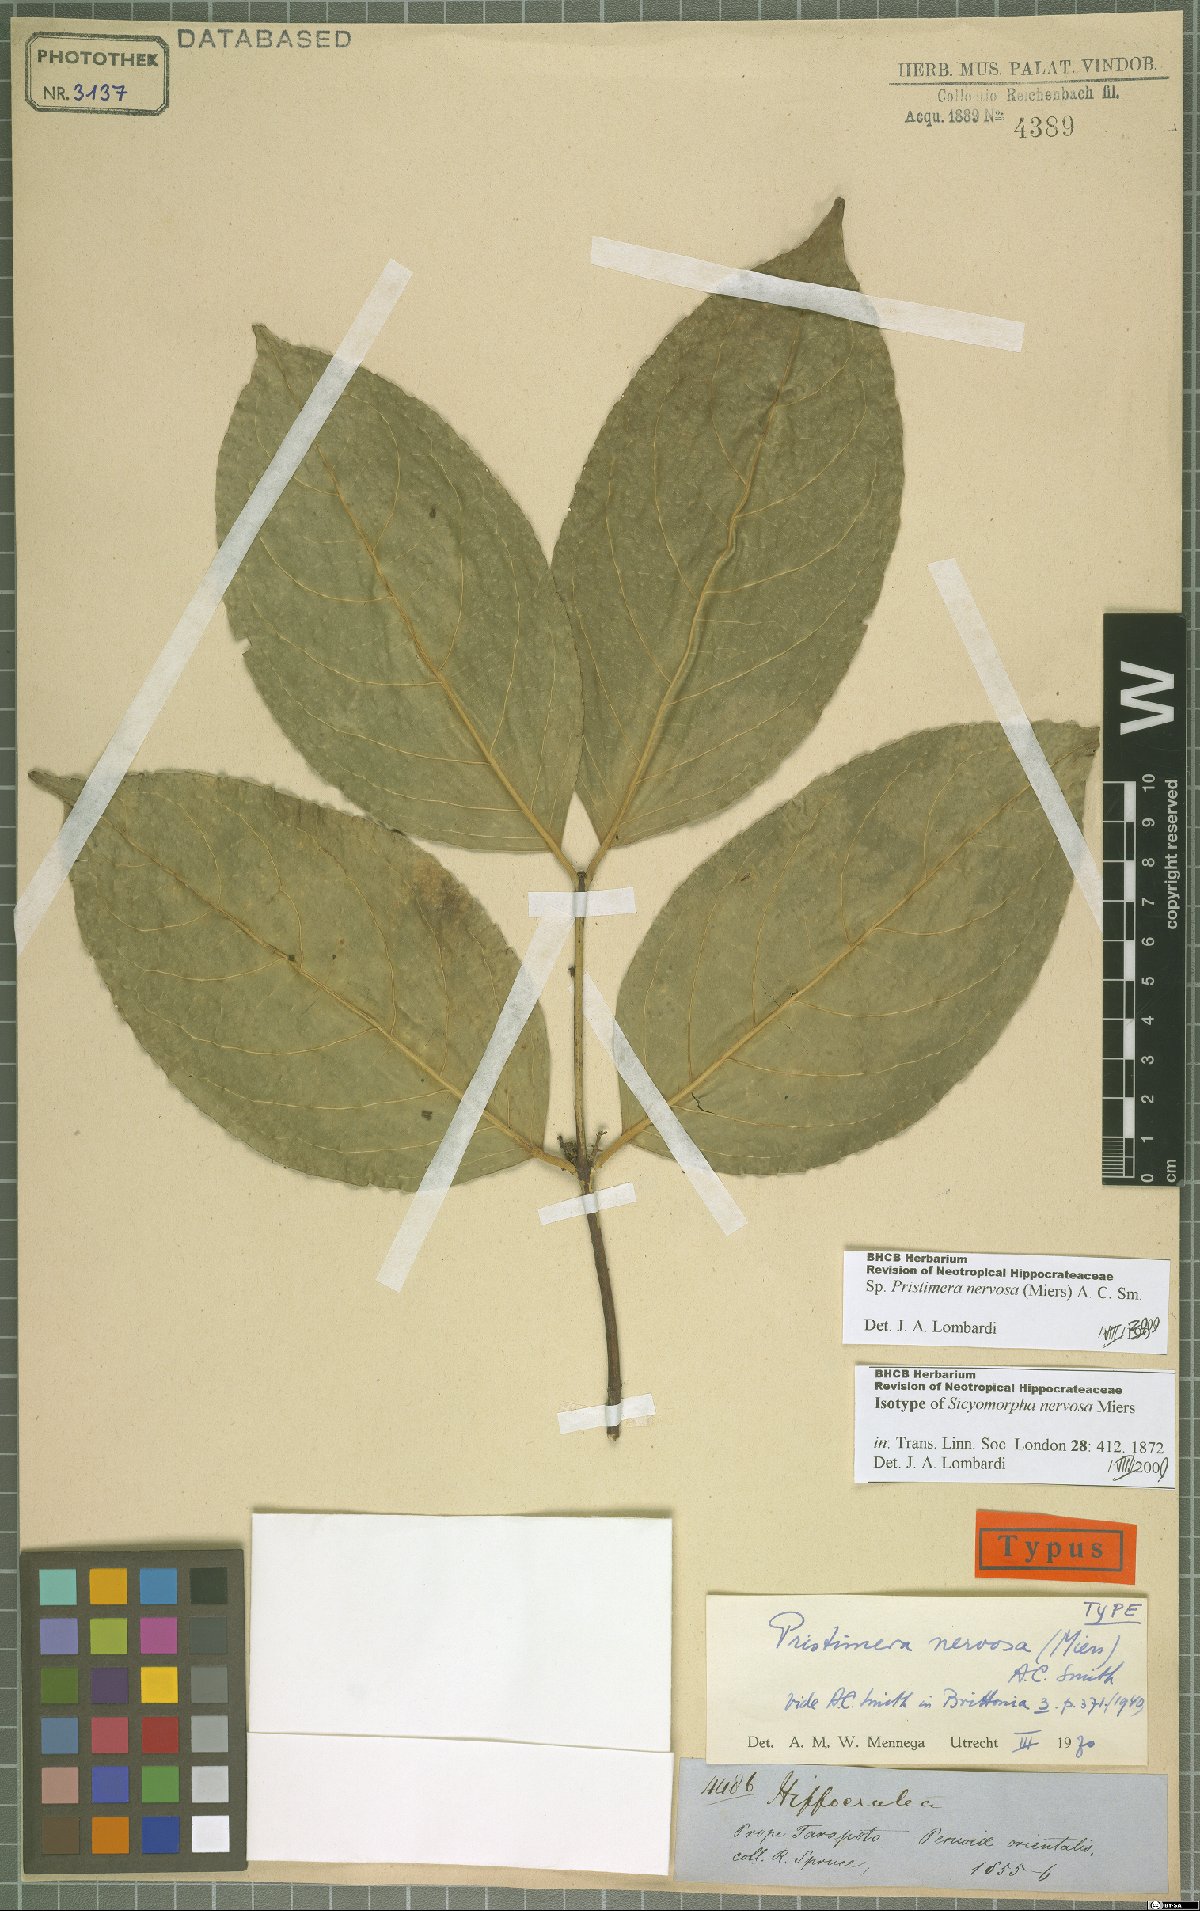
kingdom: Plantae
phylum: Tracheophyta
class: Magnoliopsida
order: Celastrales
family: Celastraceae
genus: Pristimera
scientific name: Pristimera nervosa
